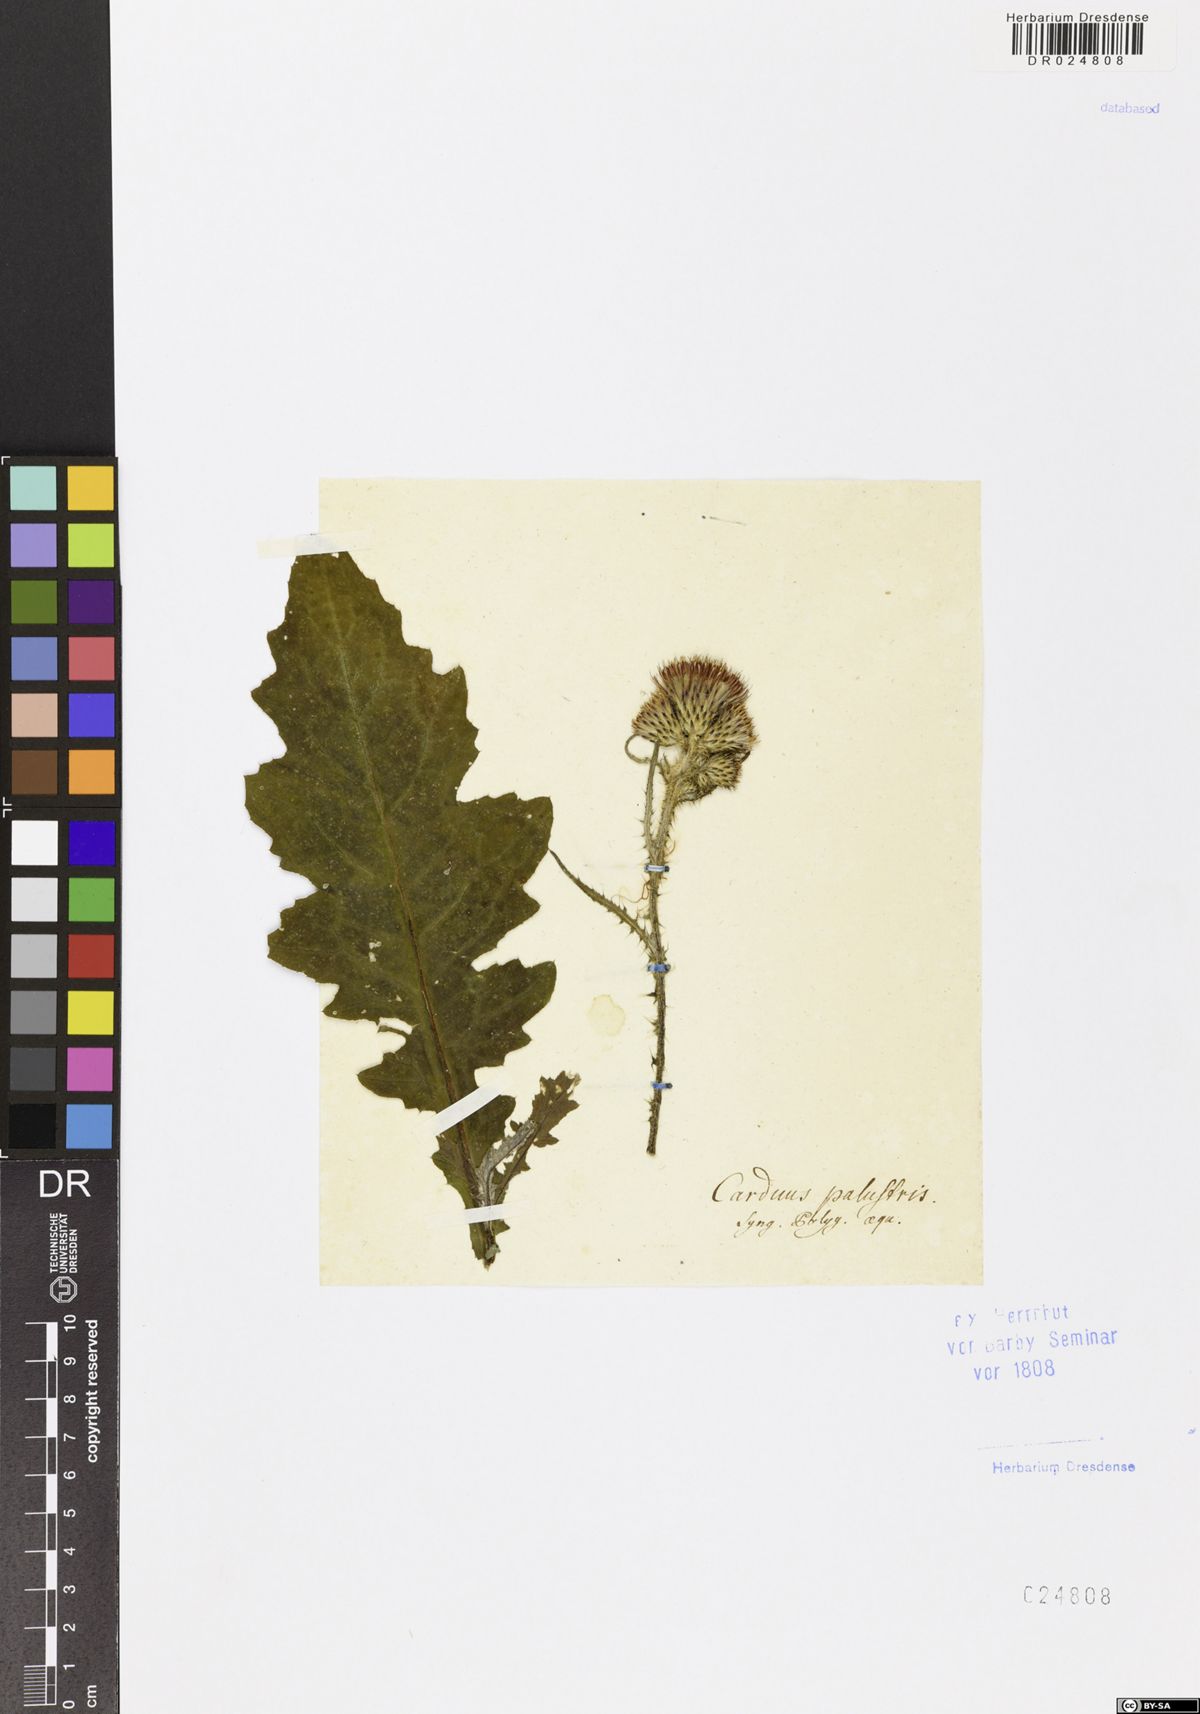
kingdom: Plantae
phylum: Tracheophyta
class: Magnoliopsida
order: Asterales
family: Asteraceae
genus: Cirsium
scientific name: Cirsium palustre
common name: Marsh thistle
